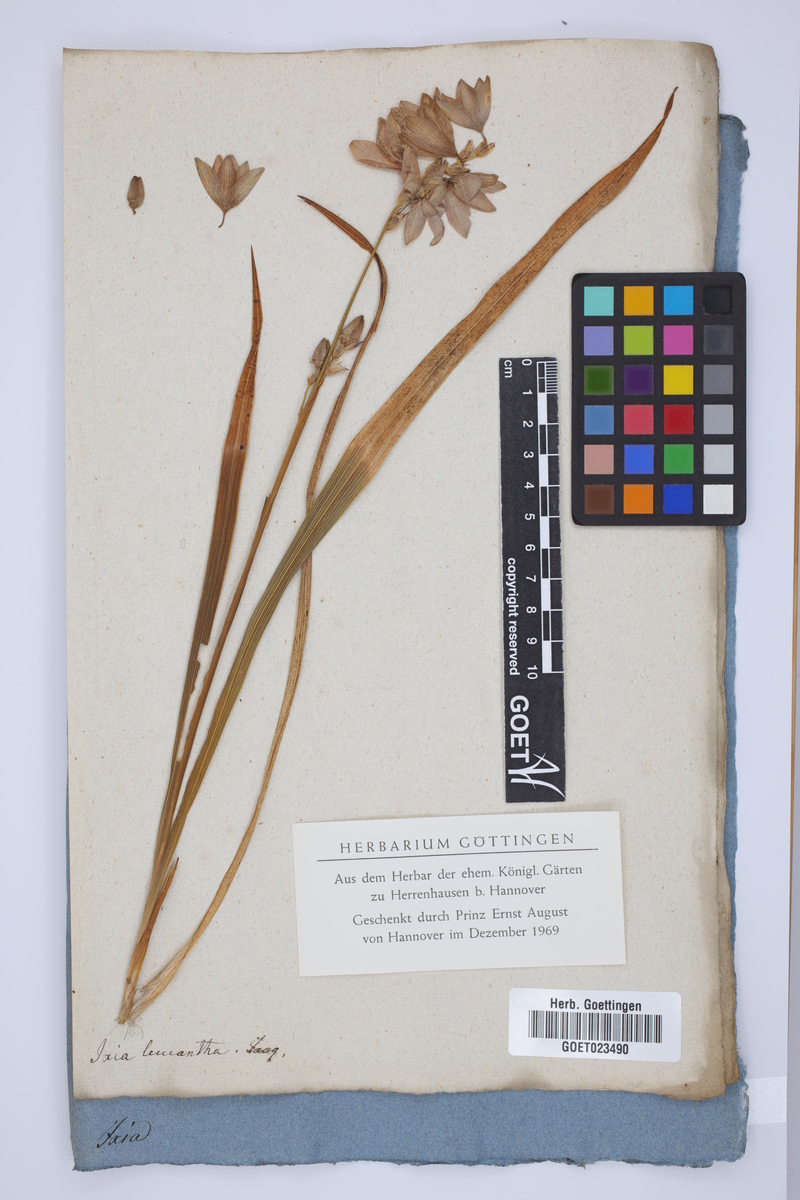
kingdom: Plantae
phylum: Tracheophyta
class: Liliopsida
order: Asparagales
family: Iridaceae
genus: Ixia
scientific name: Ixia polystachya
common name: White-and-yellow-flower cornlily
